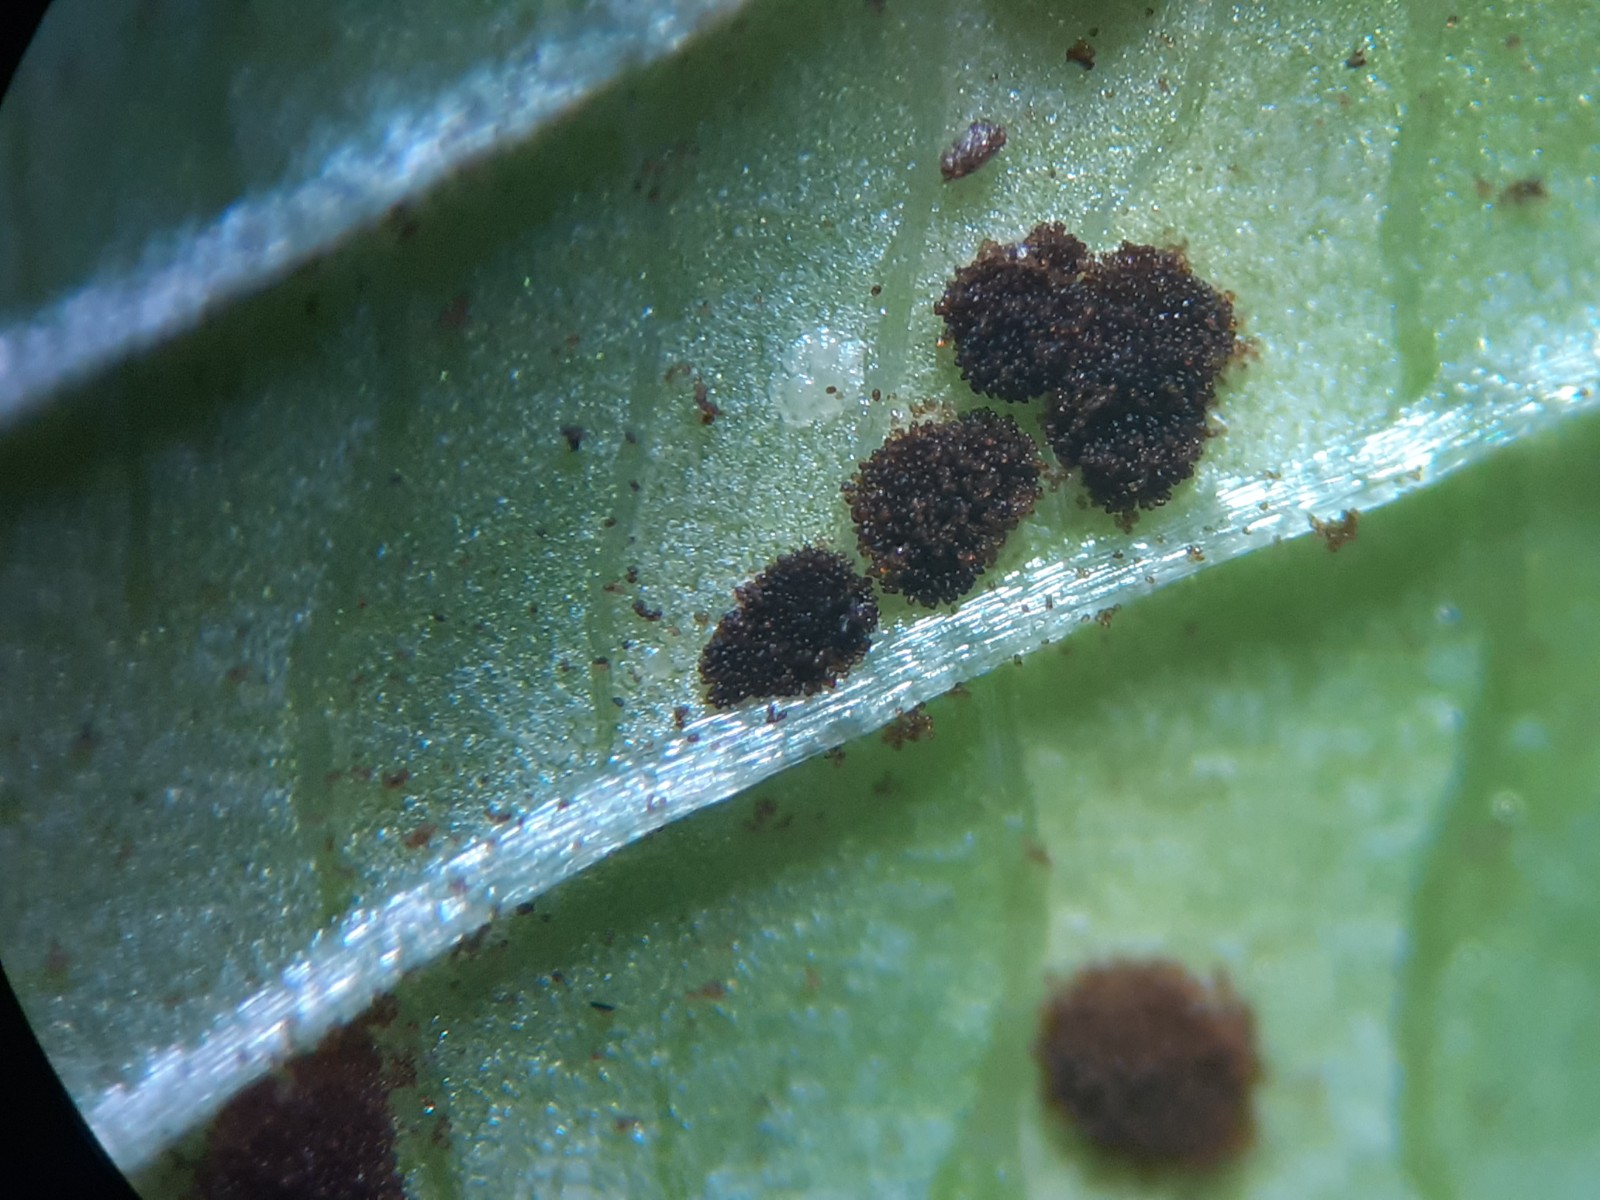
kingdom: Fungi
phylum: Basidiomycota
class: Pucciniomycetes
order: Pucciniales
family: Pucciniaceae
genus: Puccinia
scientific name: Puccinia komarovii
